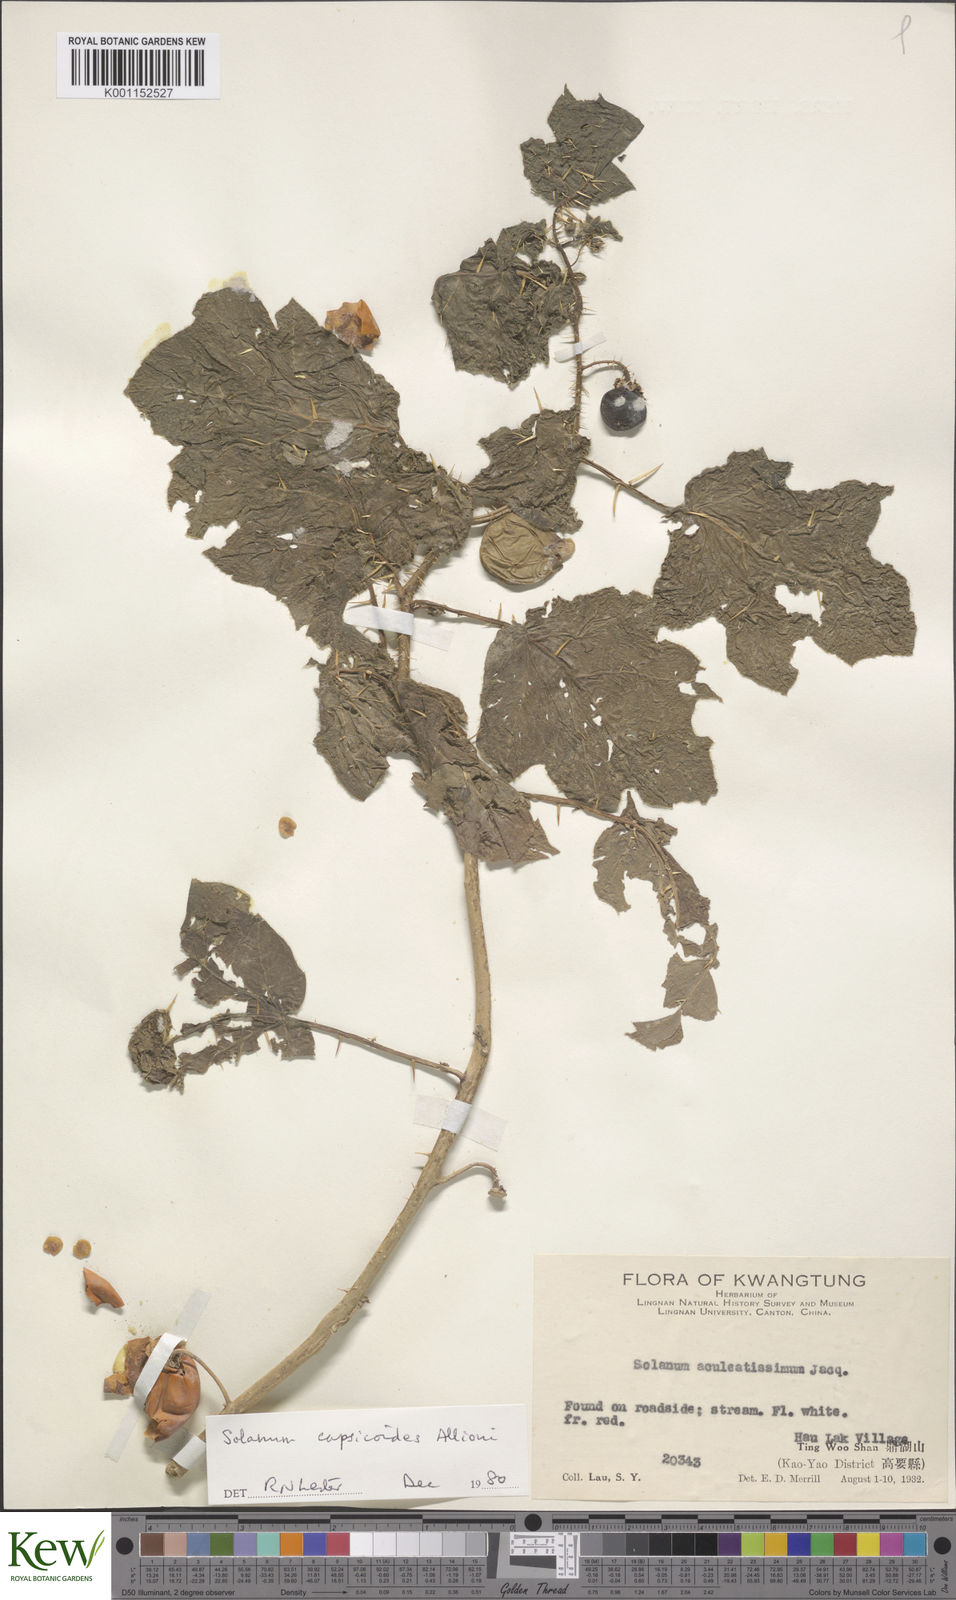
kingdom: Plantae
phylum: Tracheophyta
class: Magnoliopsida
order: Solanales
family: Solanaceae
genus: Solanum
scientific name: Solanum capsicoides
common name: Cockroach berry
